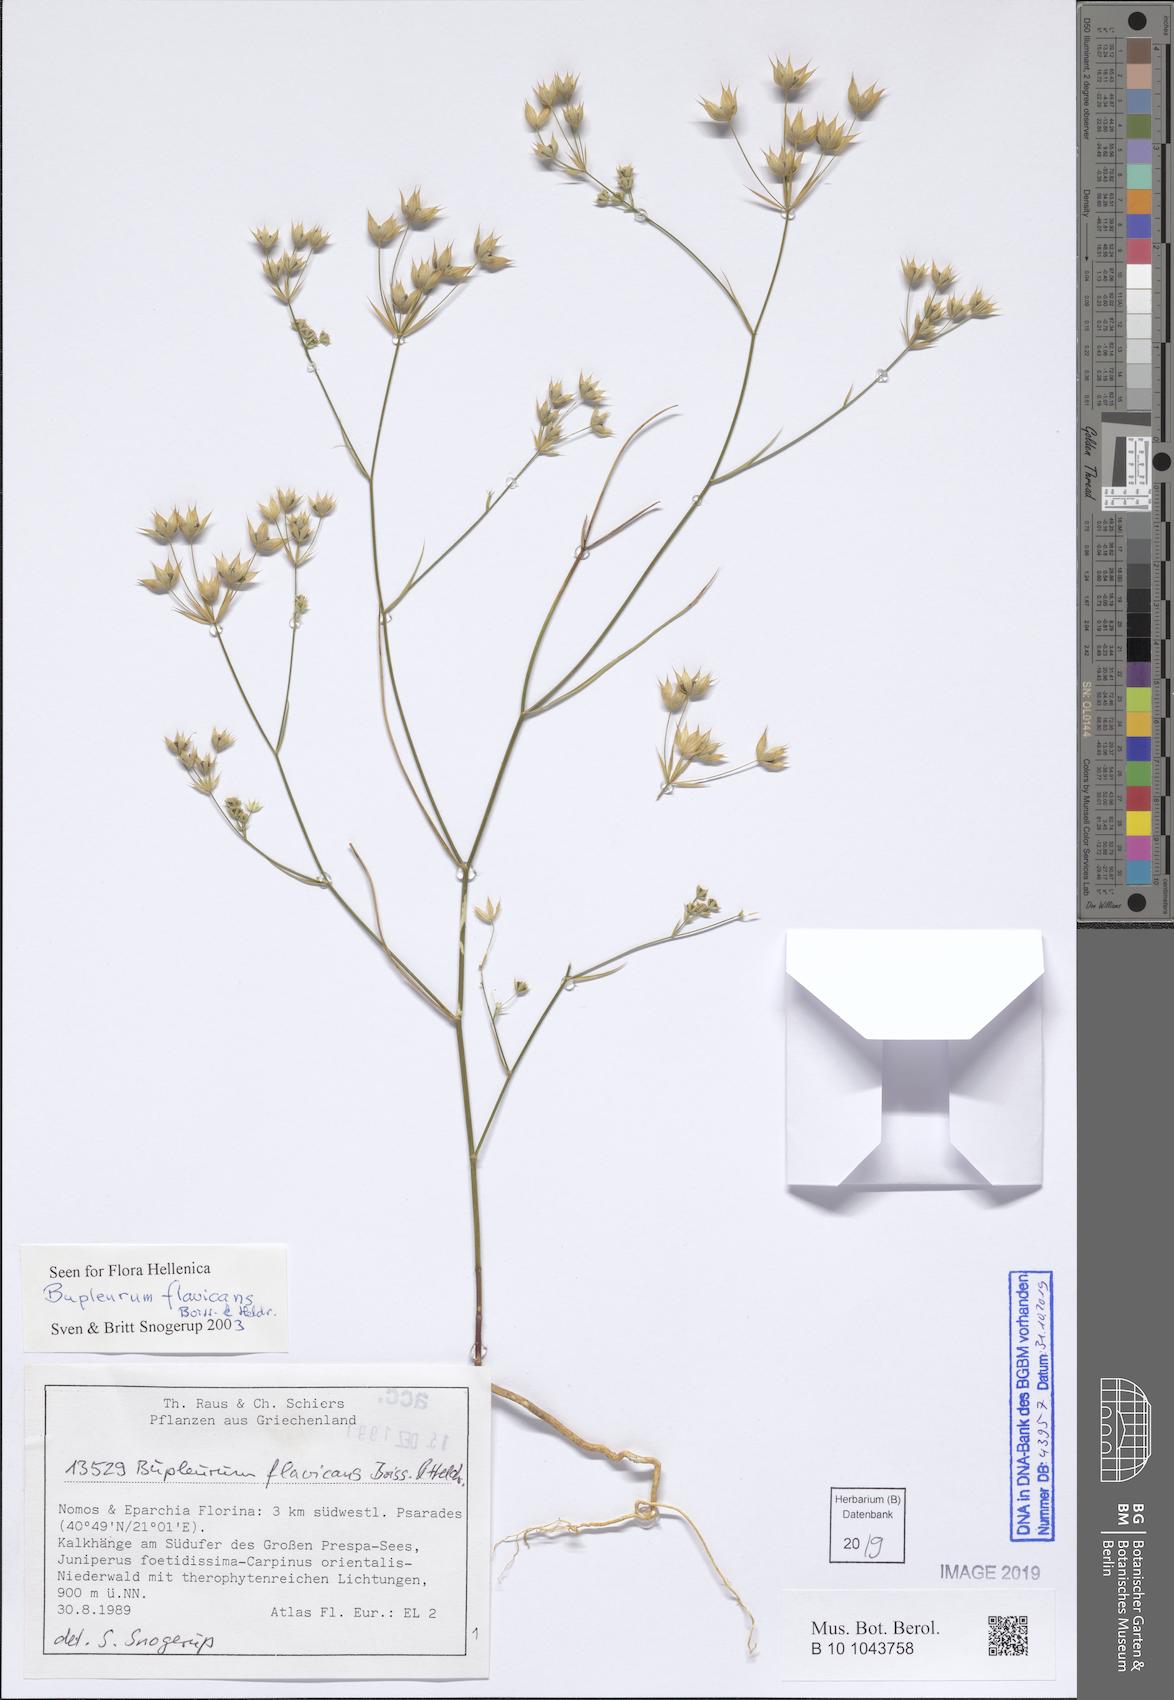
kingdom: Plantae
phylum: Tracheophyta
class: Magnoliopsida
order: Apiales
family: Apiaceae
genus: Bupleurum
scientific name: Bupleurum flavicans
